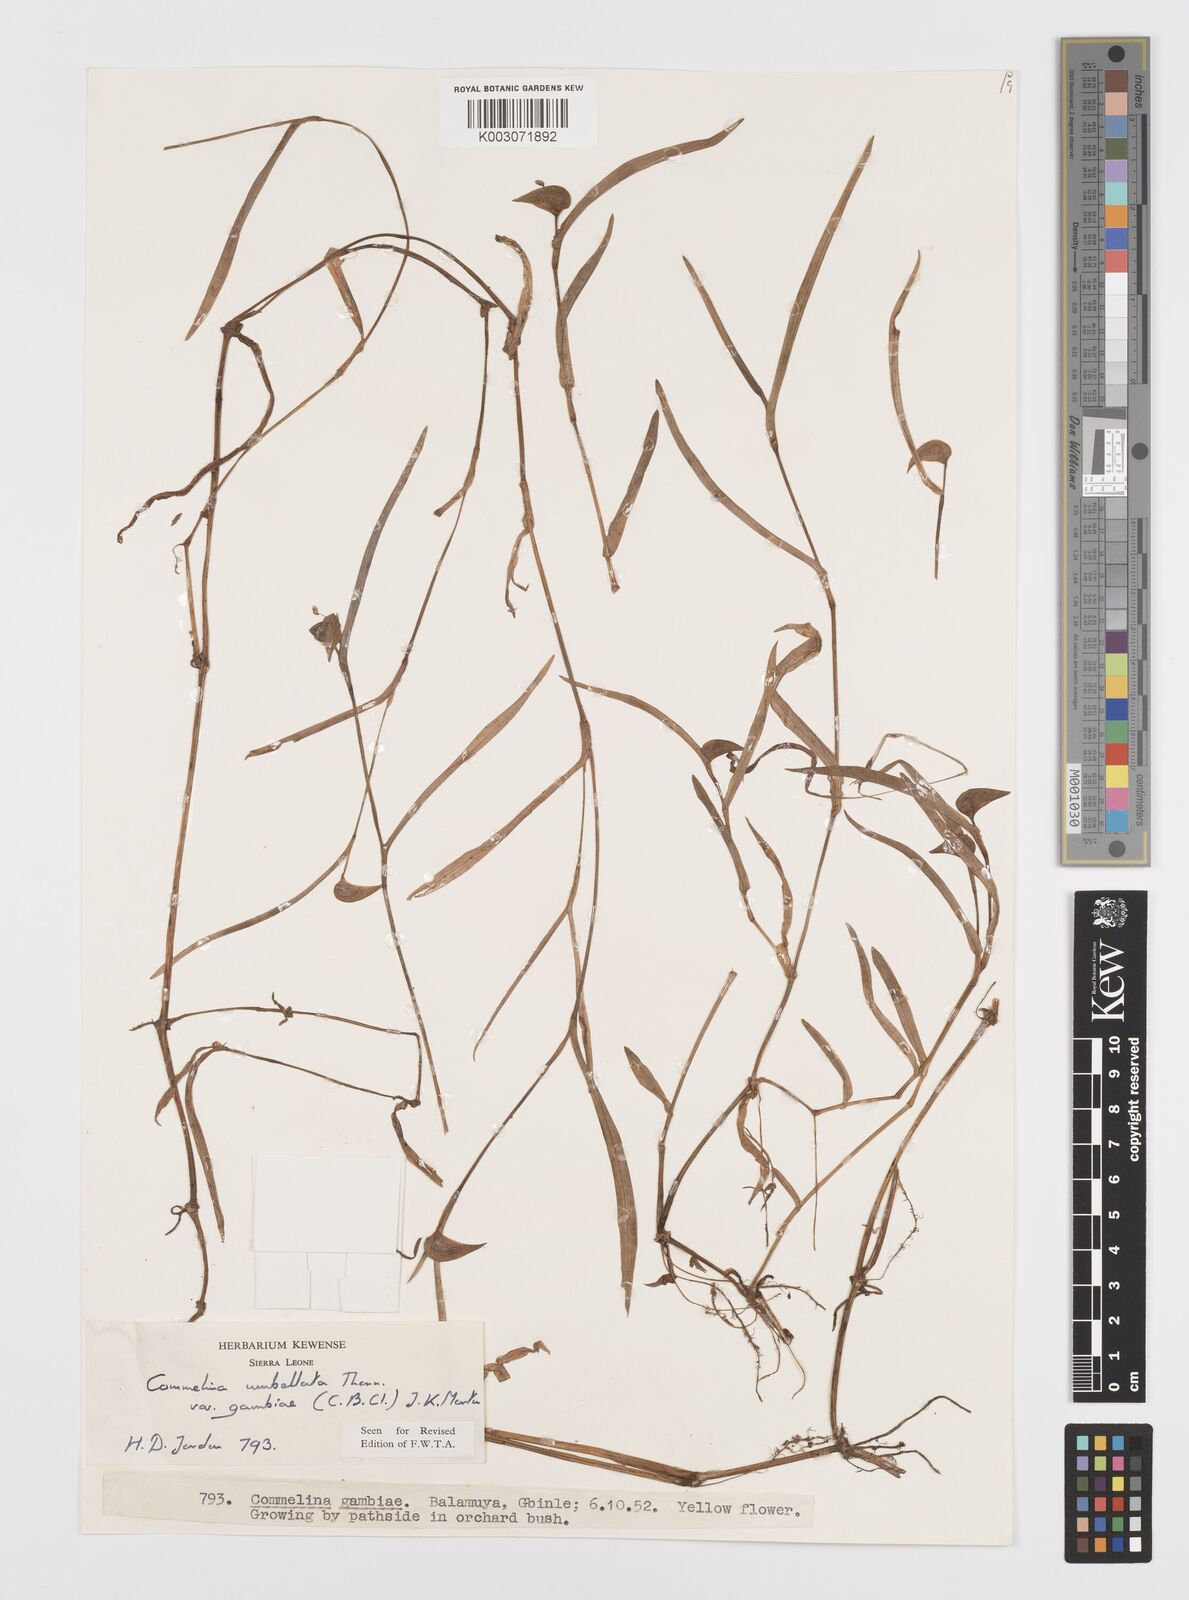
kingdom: Plantae
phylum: Tracheophyta
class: Liliopsida
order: Commelinales
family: Commelinaceae
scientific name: Commelinaceae
